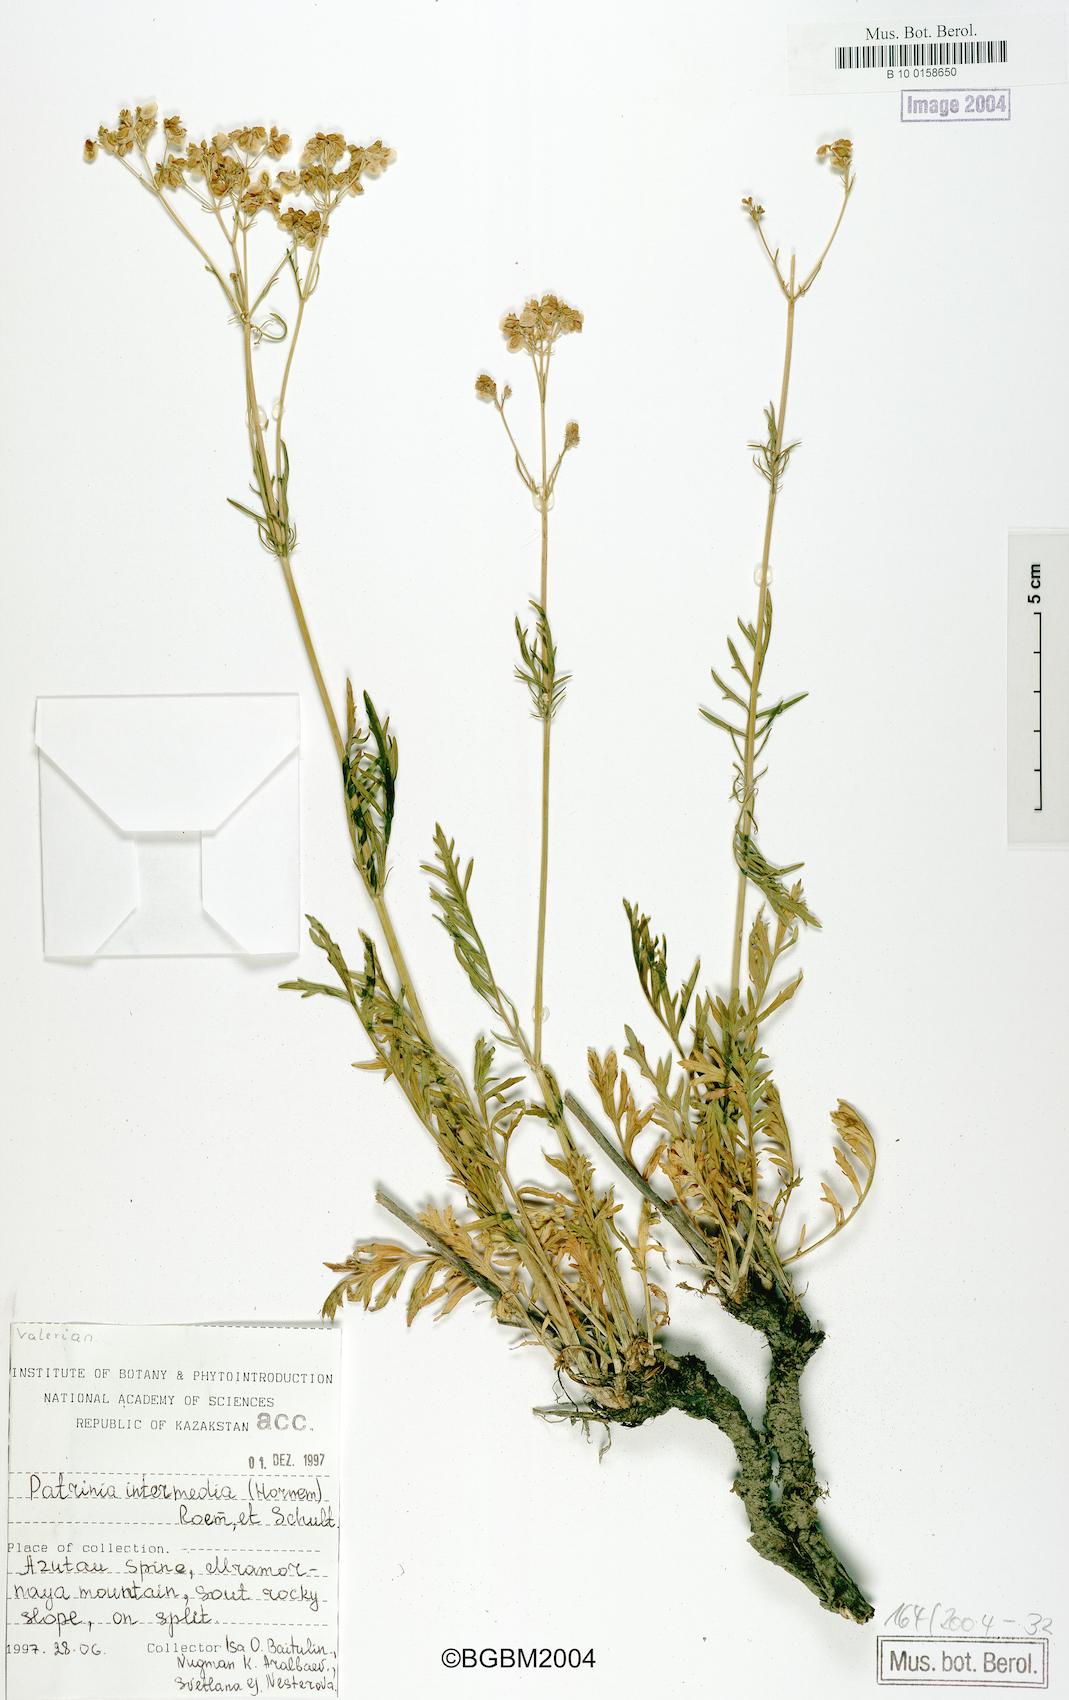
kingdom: Plantae
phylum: Tracheophyta
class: Magnoliopsida
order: Dipsacales
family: Caprifoliaceae
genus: Patrinia
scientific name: Patrinia intermedia
